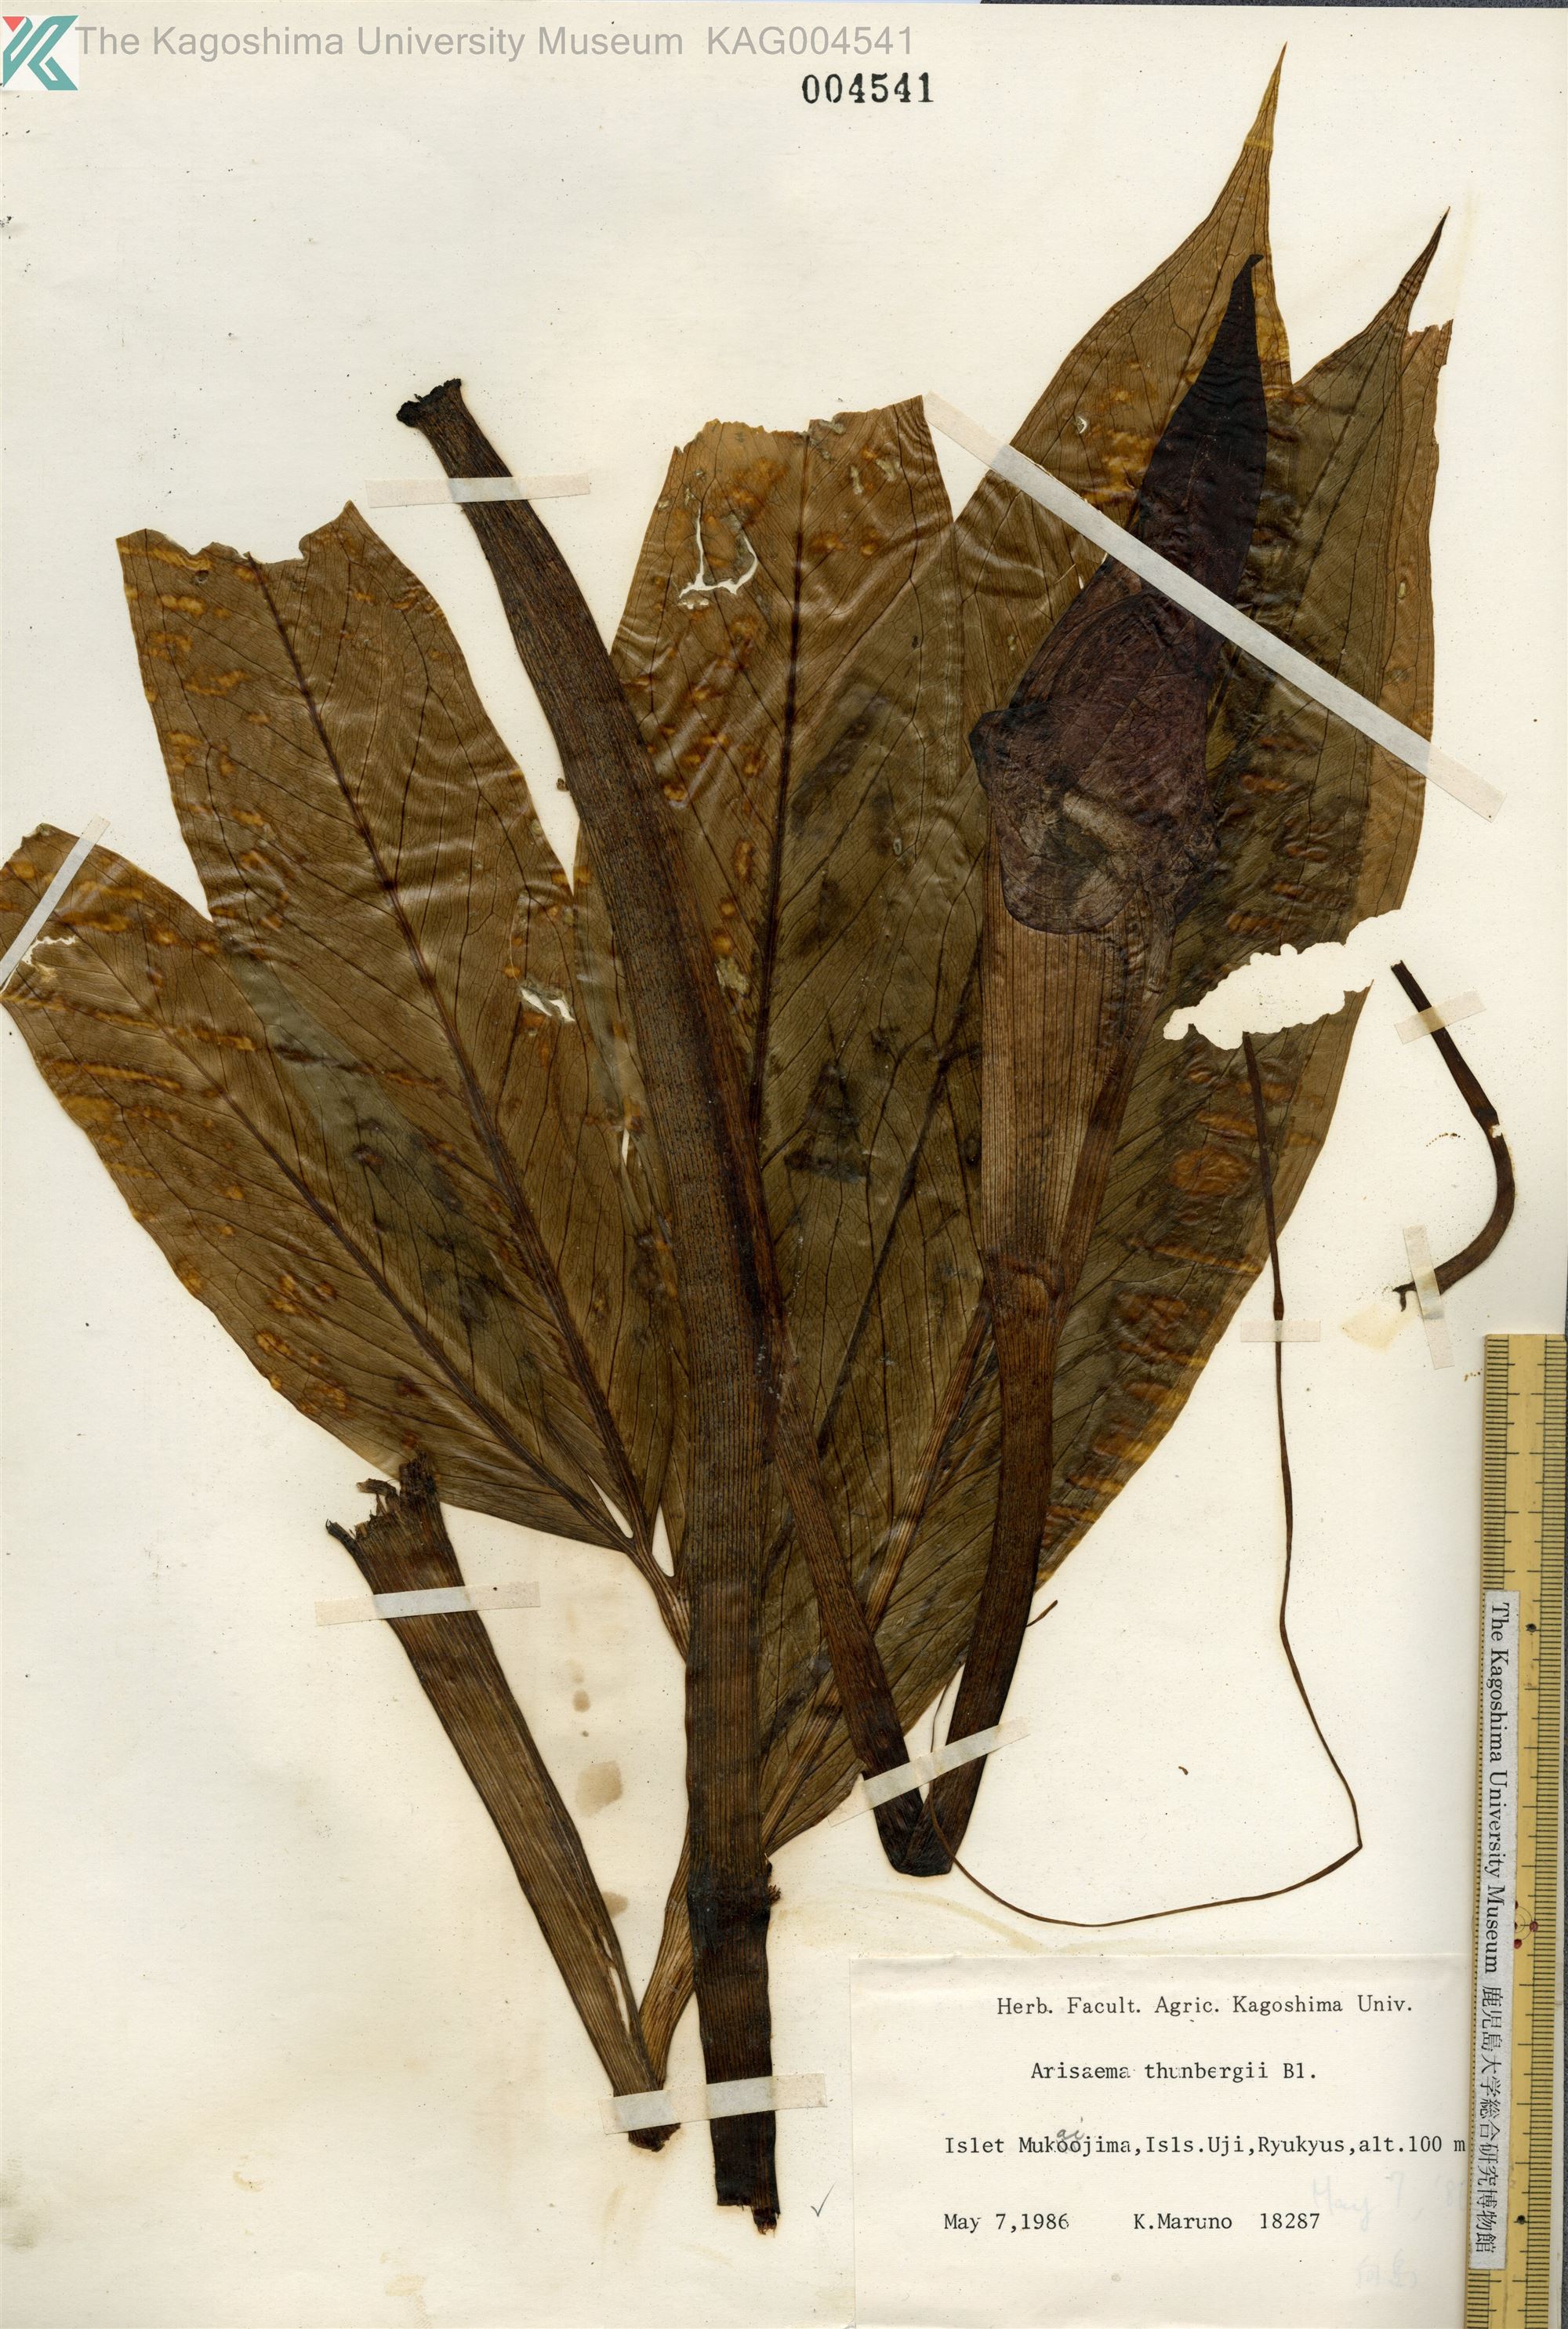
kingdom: Plantae
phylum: Tracheophyta
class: Liliopsida
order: Alismatales
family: Araceae
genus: Arisaema
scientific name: Arisaema thunbergii
